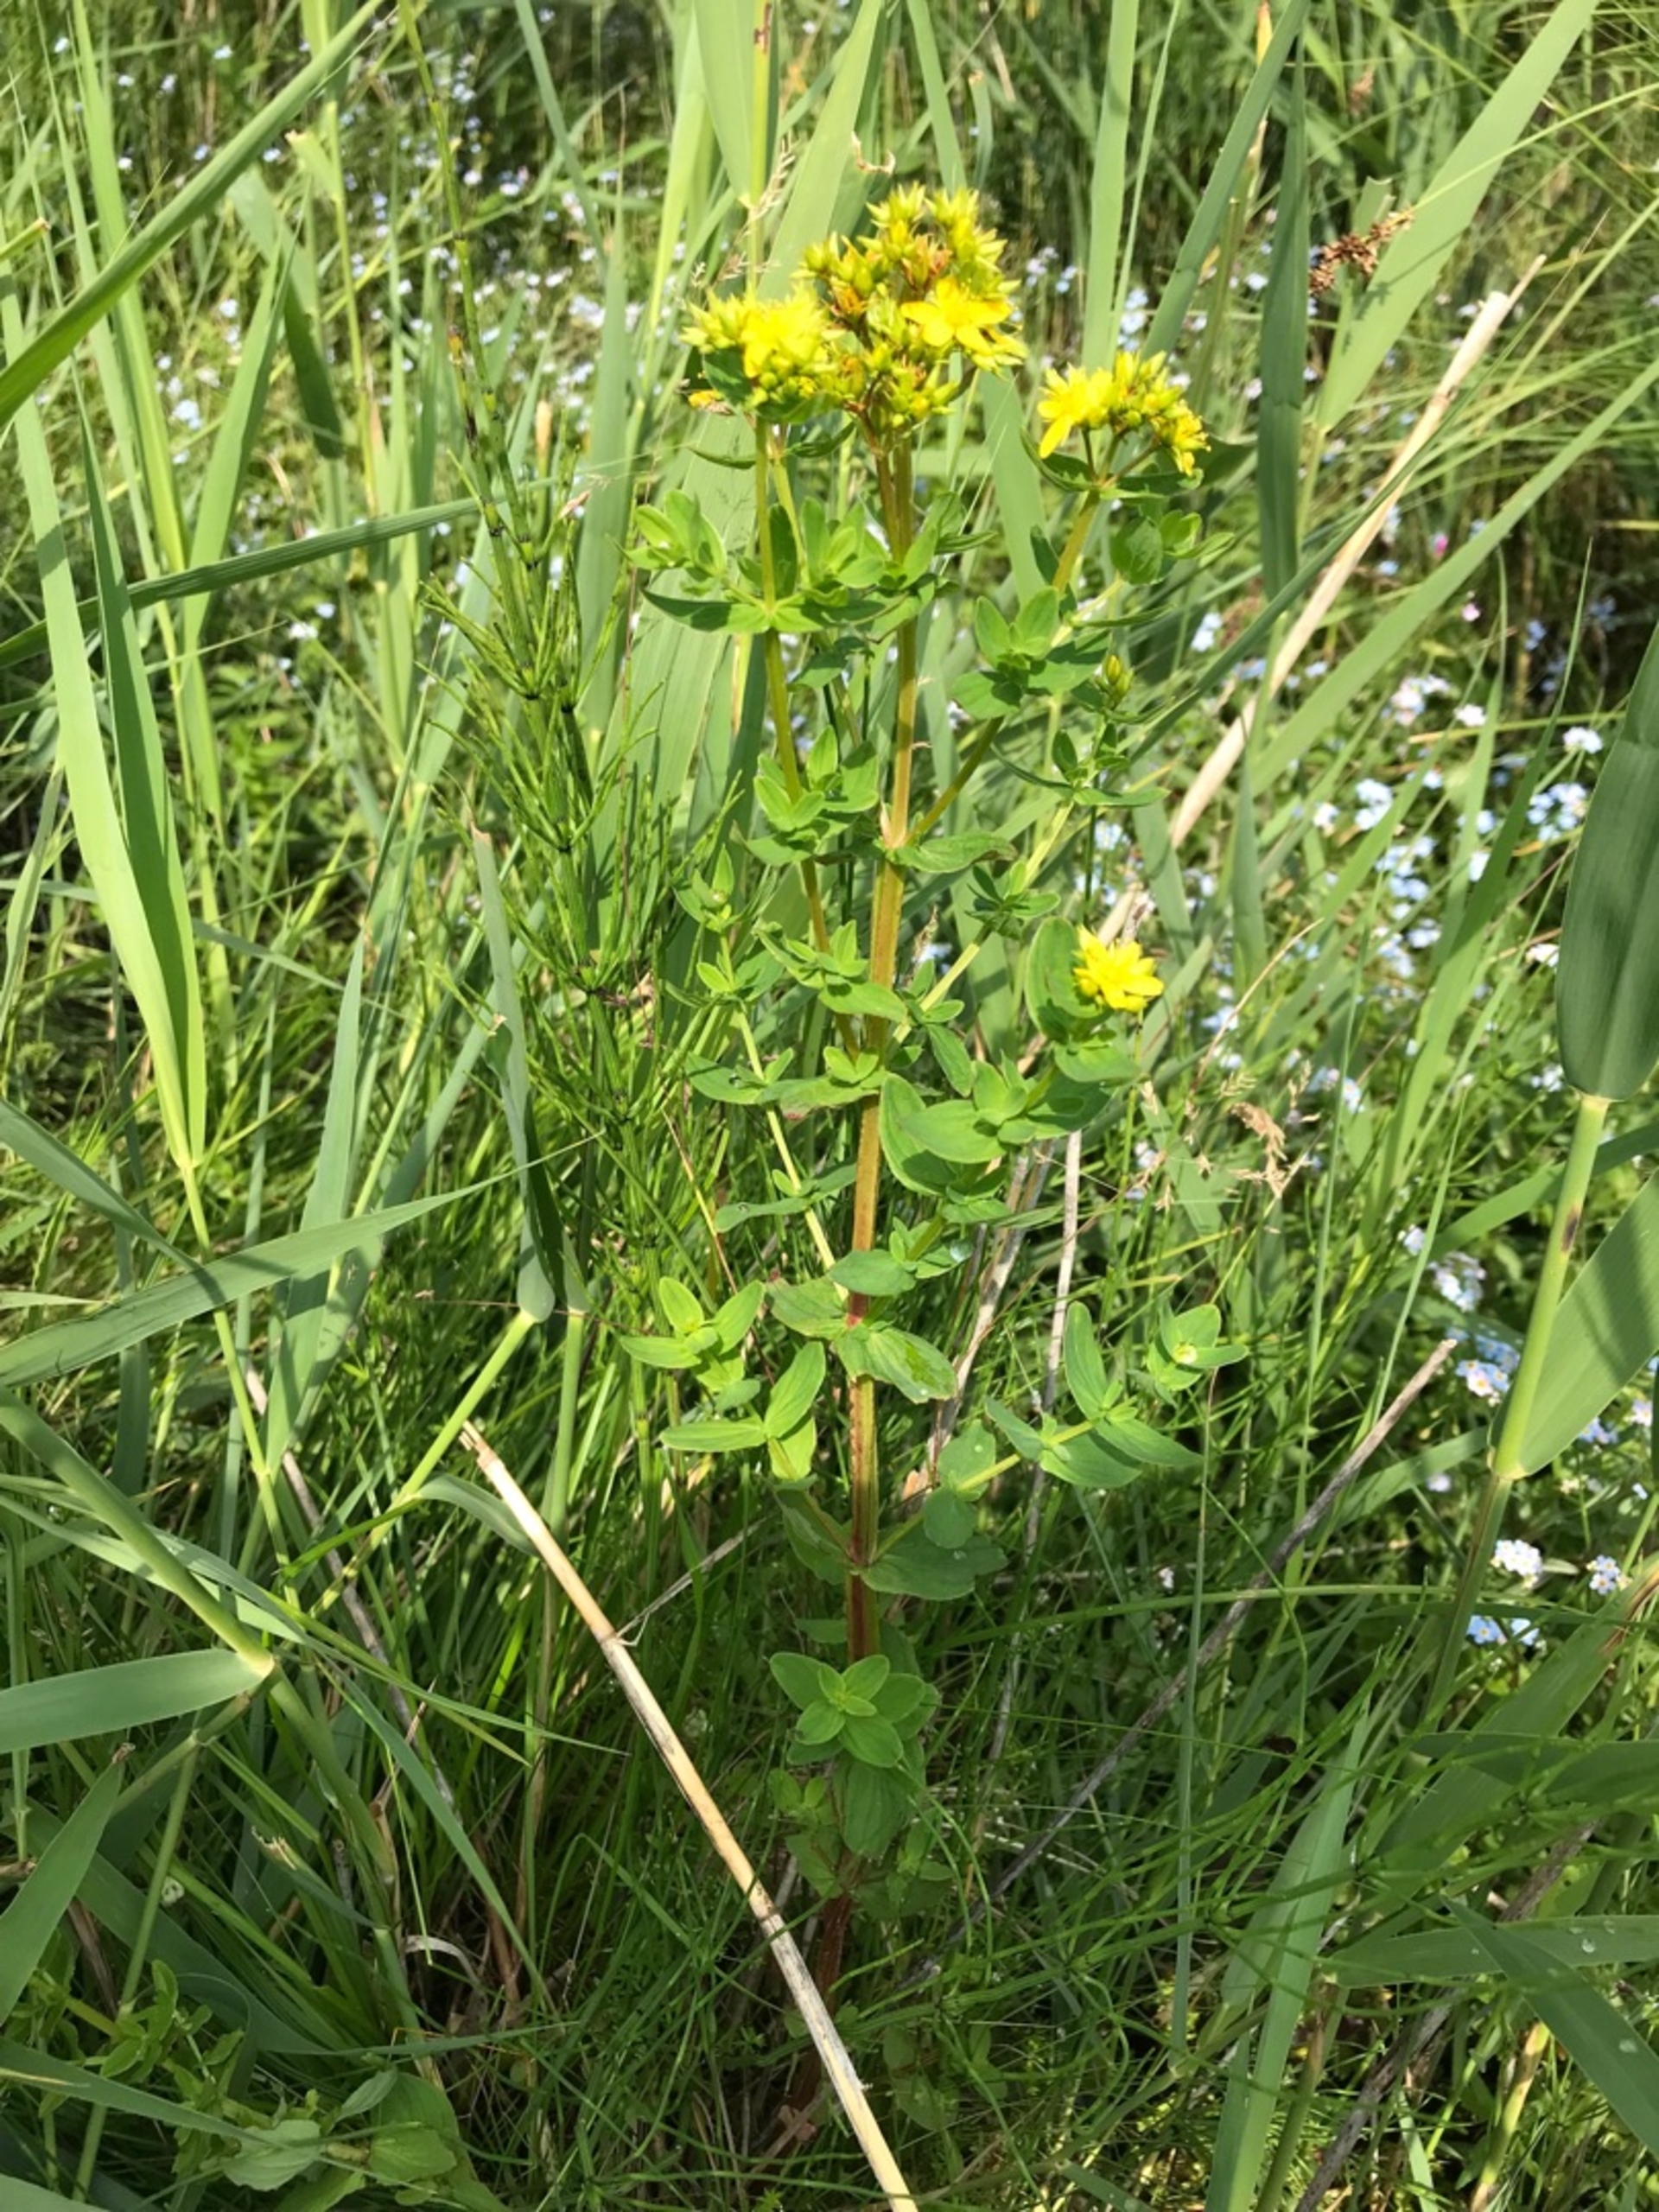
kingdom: Plantae
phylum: Tracheophyta
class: Magnoliopsida
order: Malpighiales
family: Hypericaceae
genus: Hypericum
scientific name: Hypericum tetrapterum
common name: Vinget perikon
